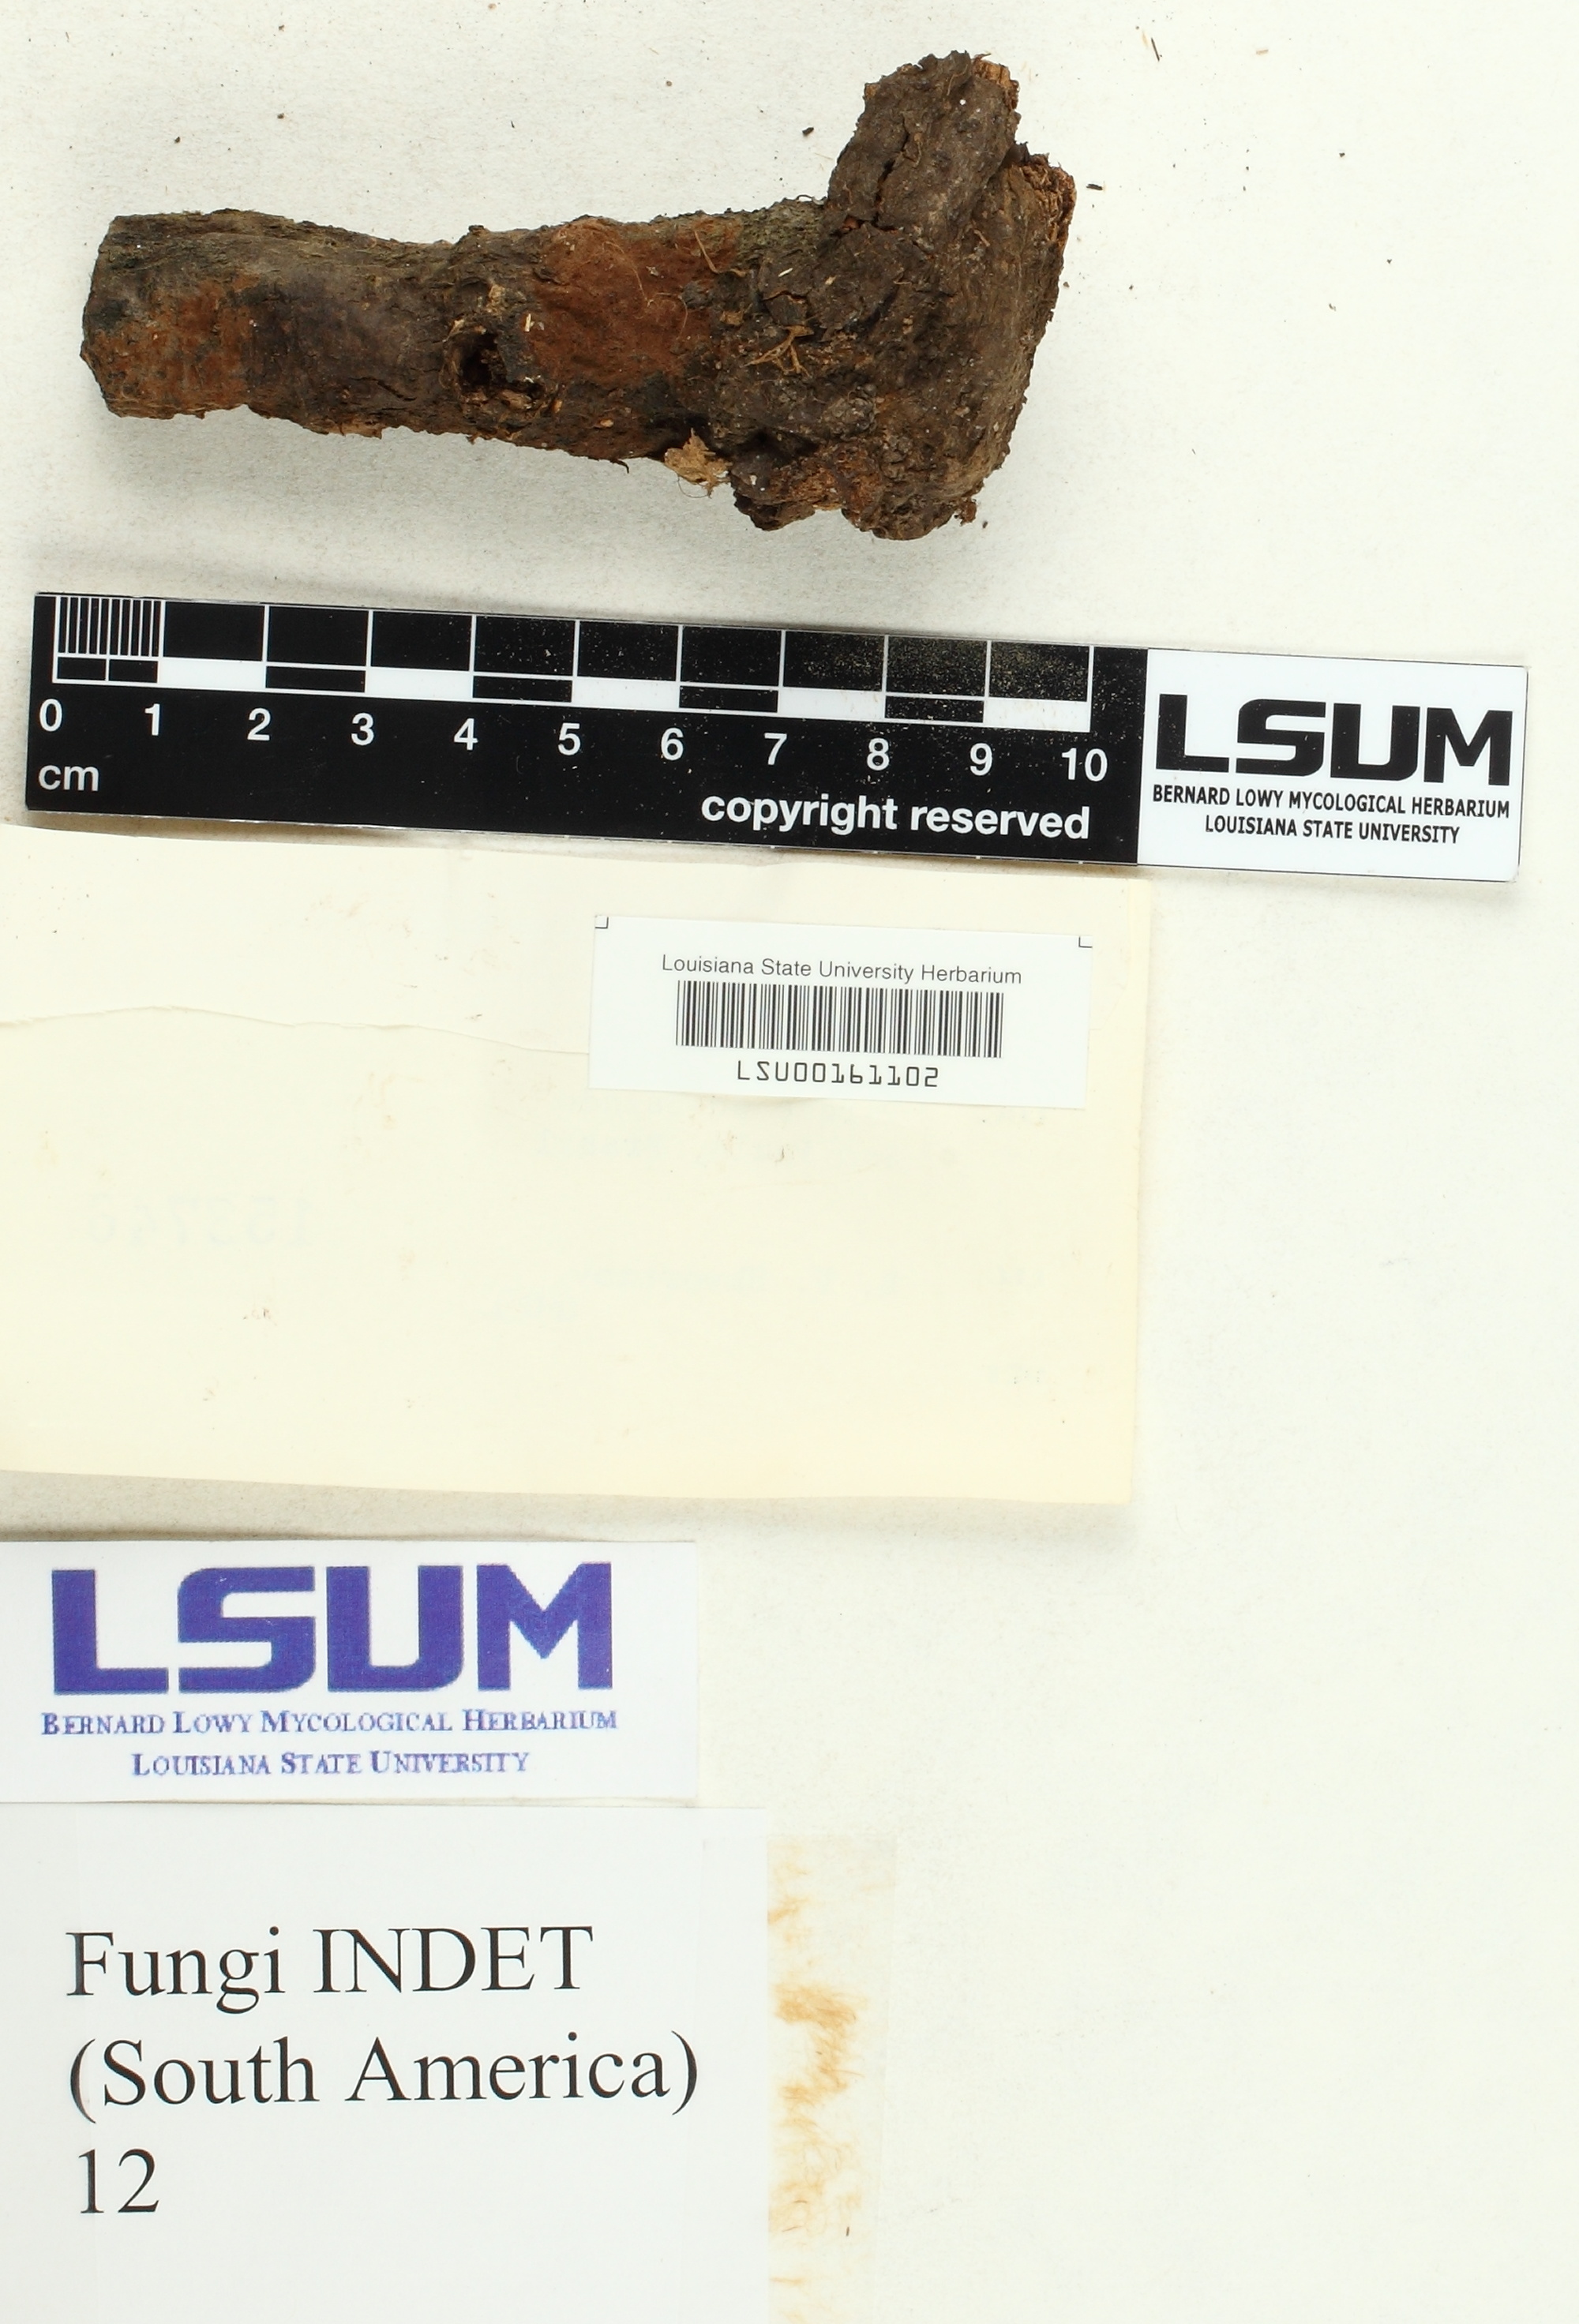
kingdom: Fungi
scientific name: Fungi
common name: Fungi
